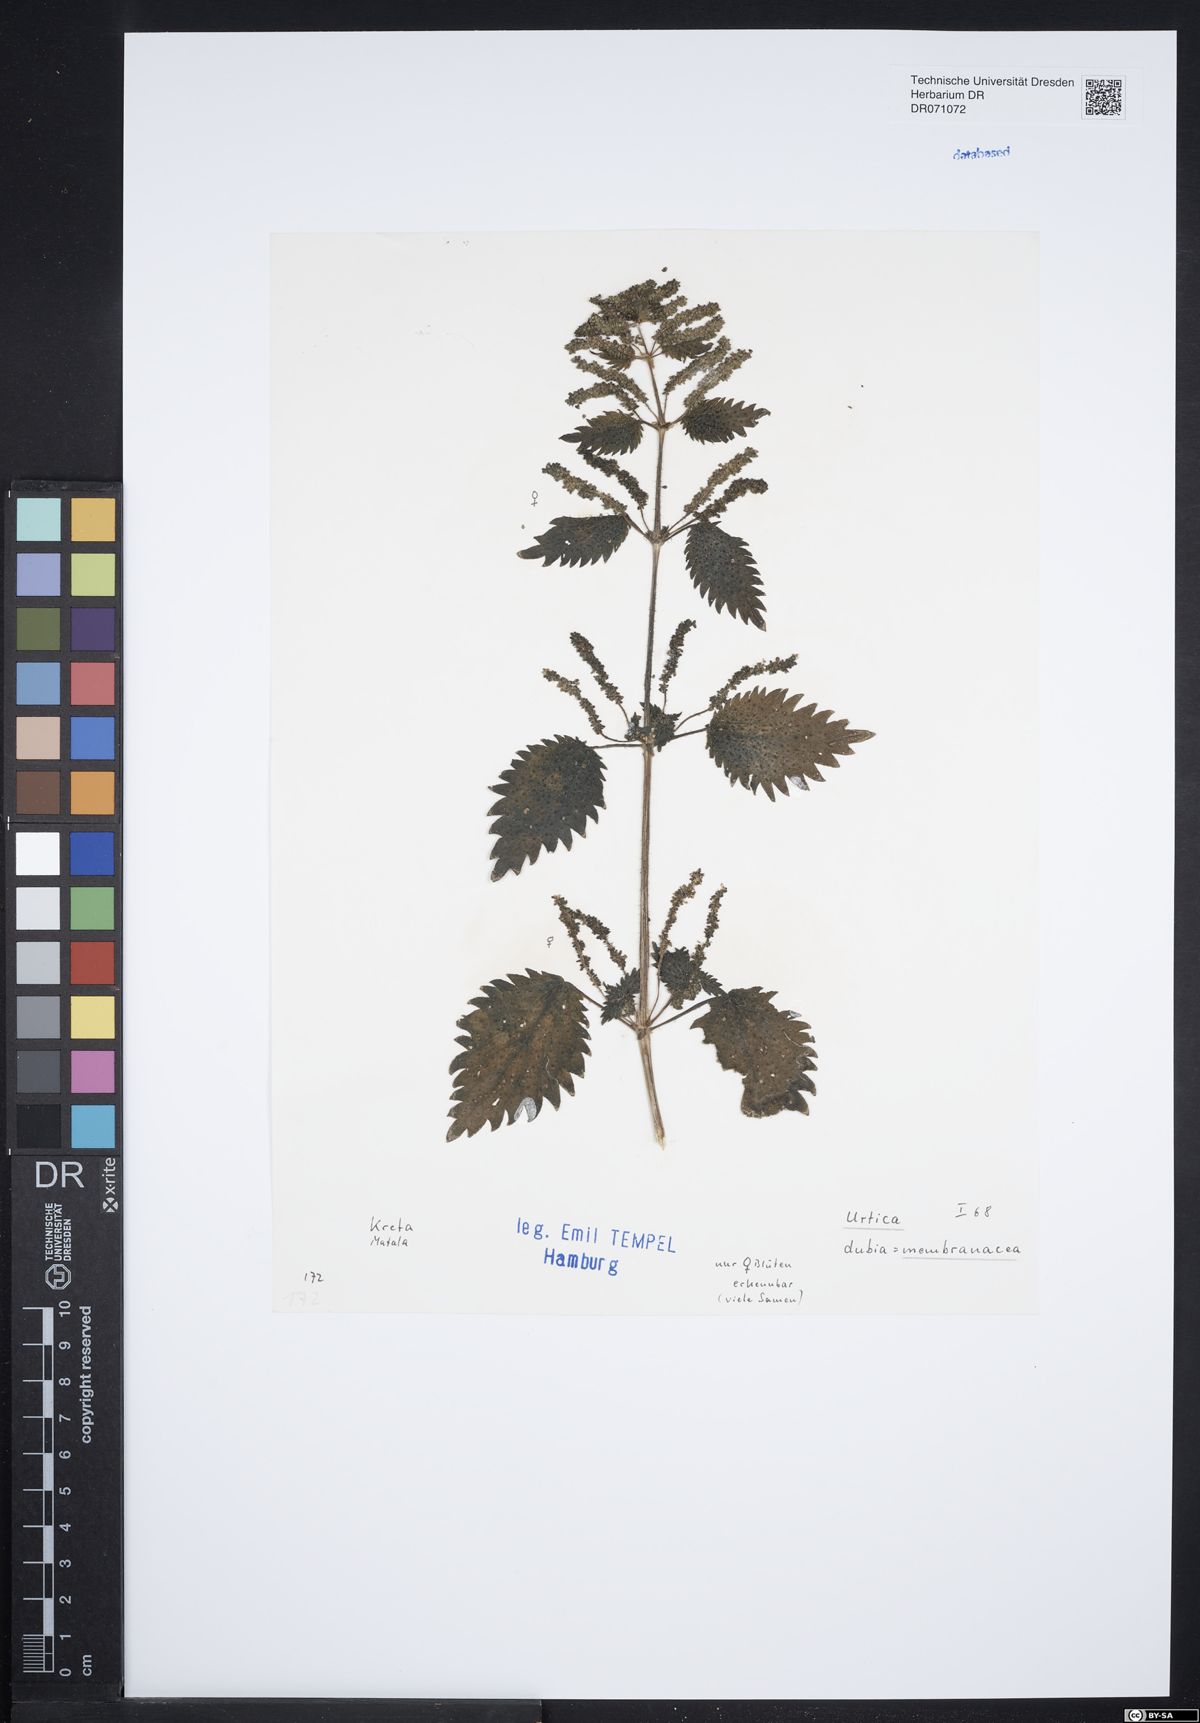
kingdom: Plantae
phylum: Tracheophyta
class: Magnoliopsida
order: Rosales
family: Urticaceae
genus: Urtica
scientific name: Urtica membranacea
